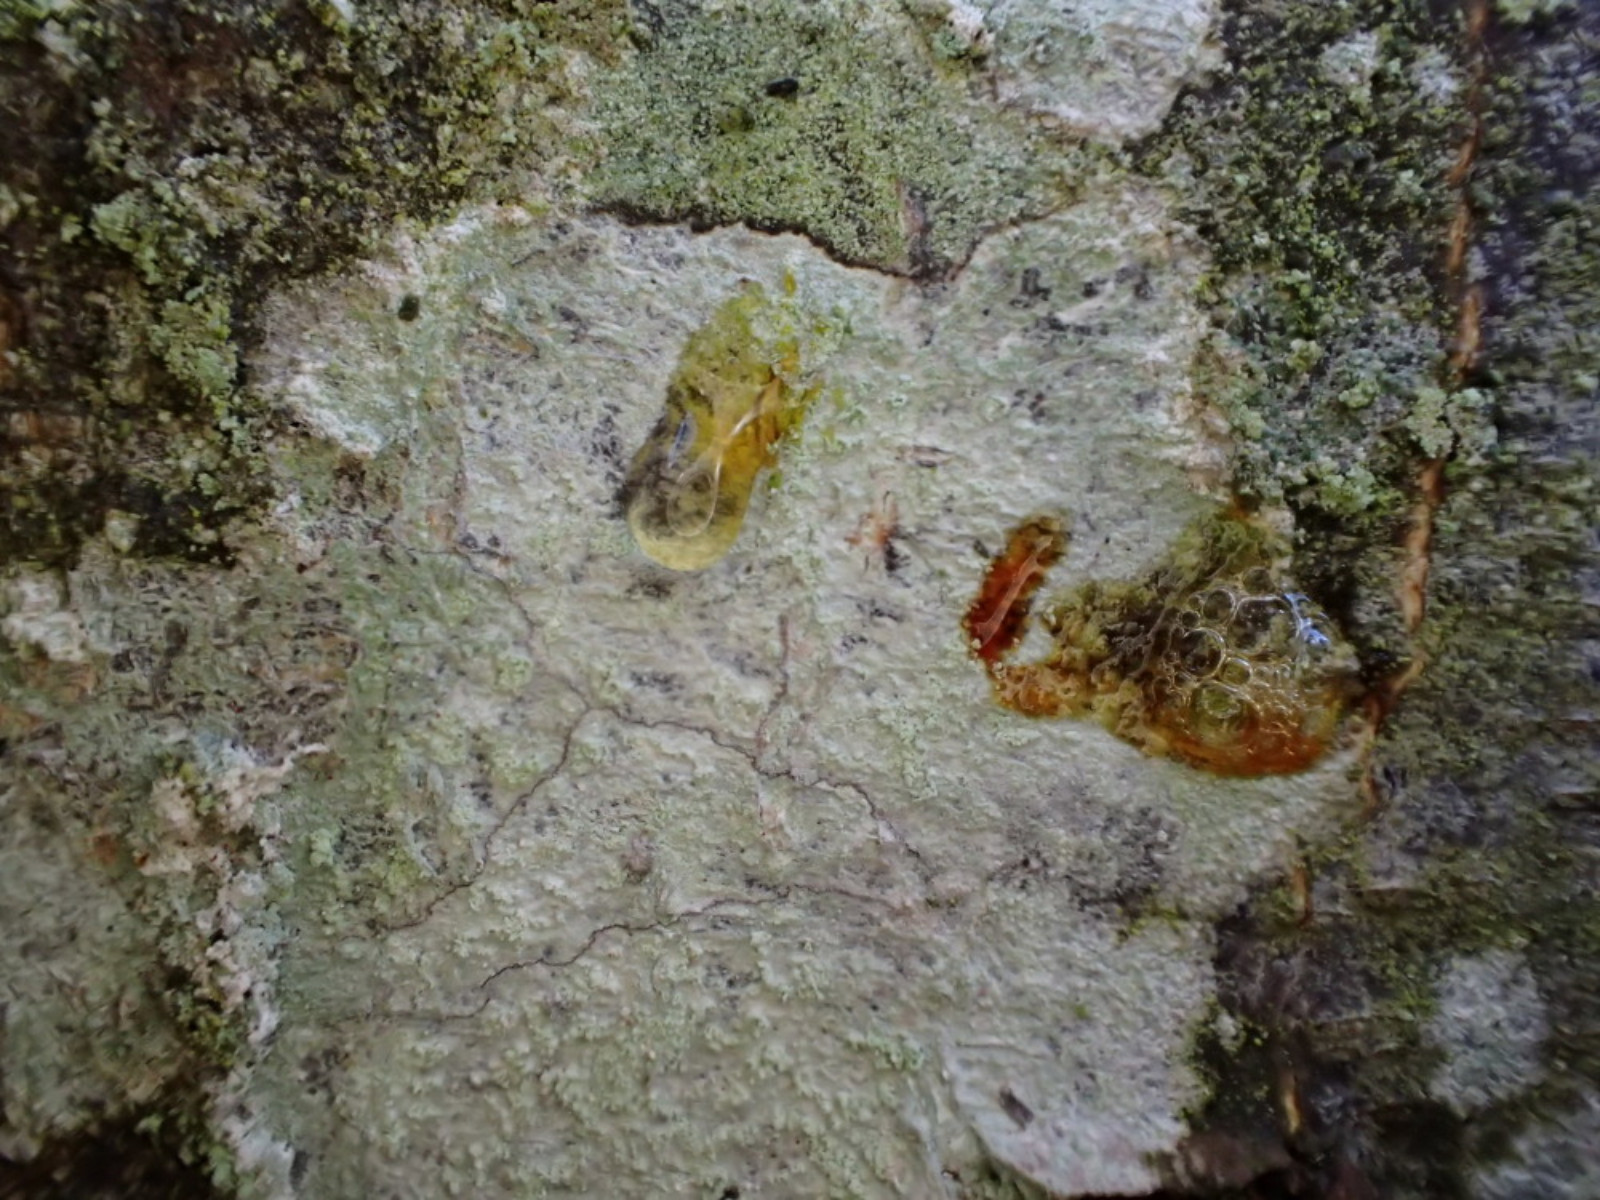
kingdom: Fungi
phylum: Ascomycota
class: Lecanoromycetes
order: Ostropales
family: Phlyctidaceae
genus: Phlyctis
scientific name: Phlyctis argena
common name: almindelig sølvlav
